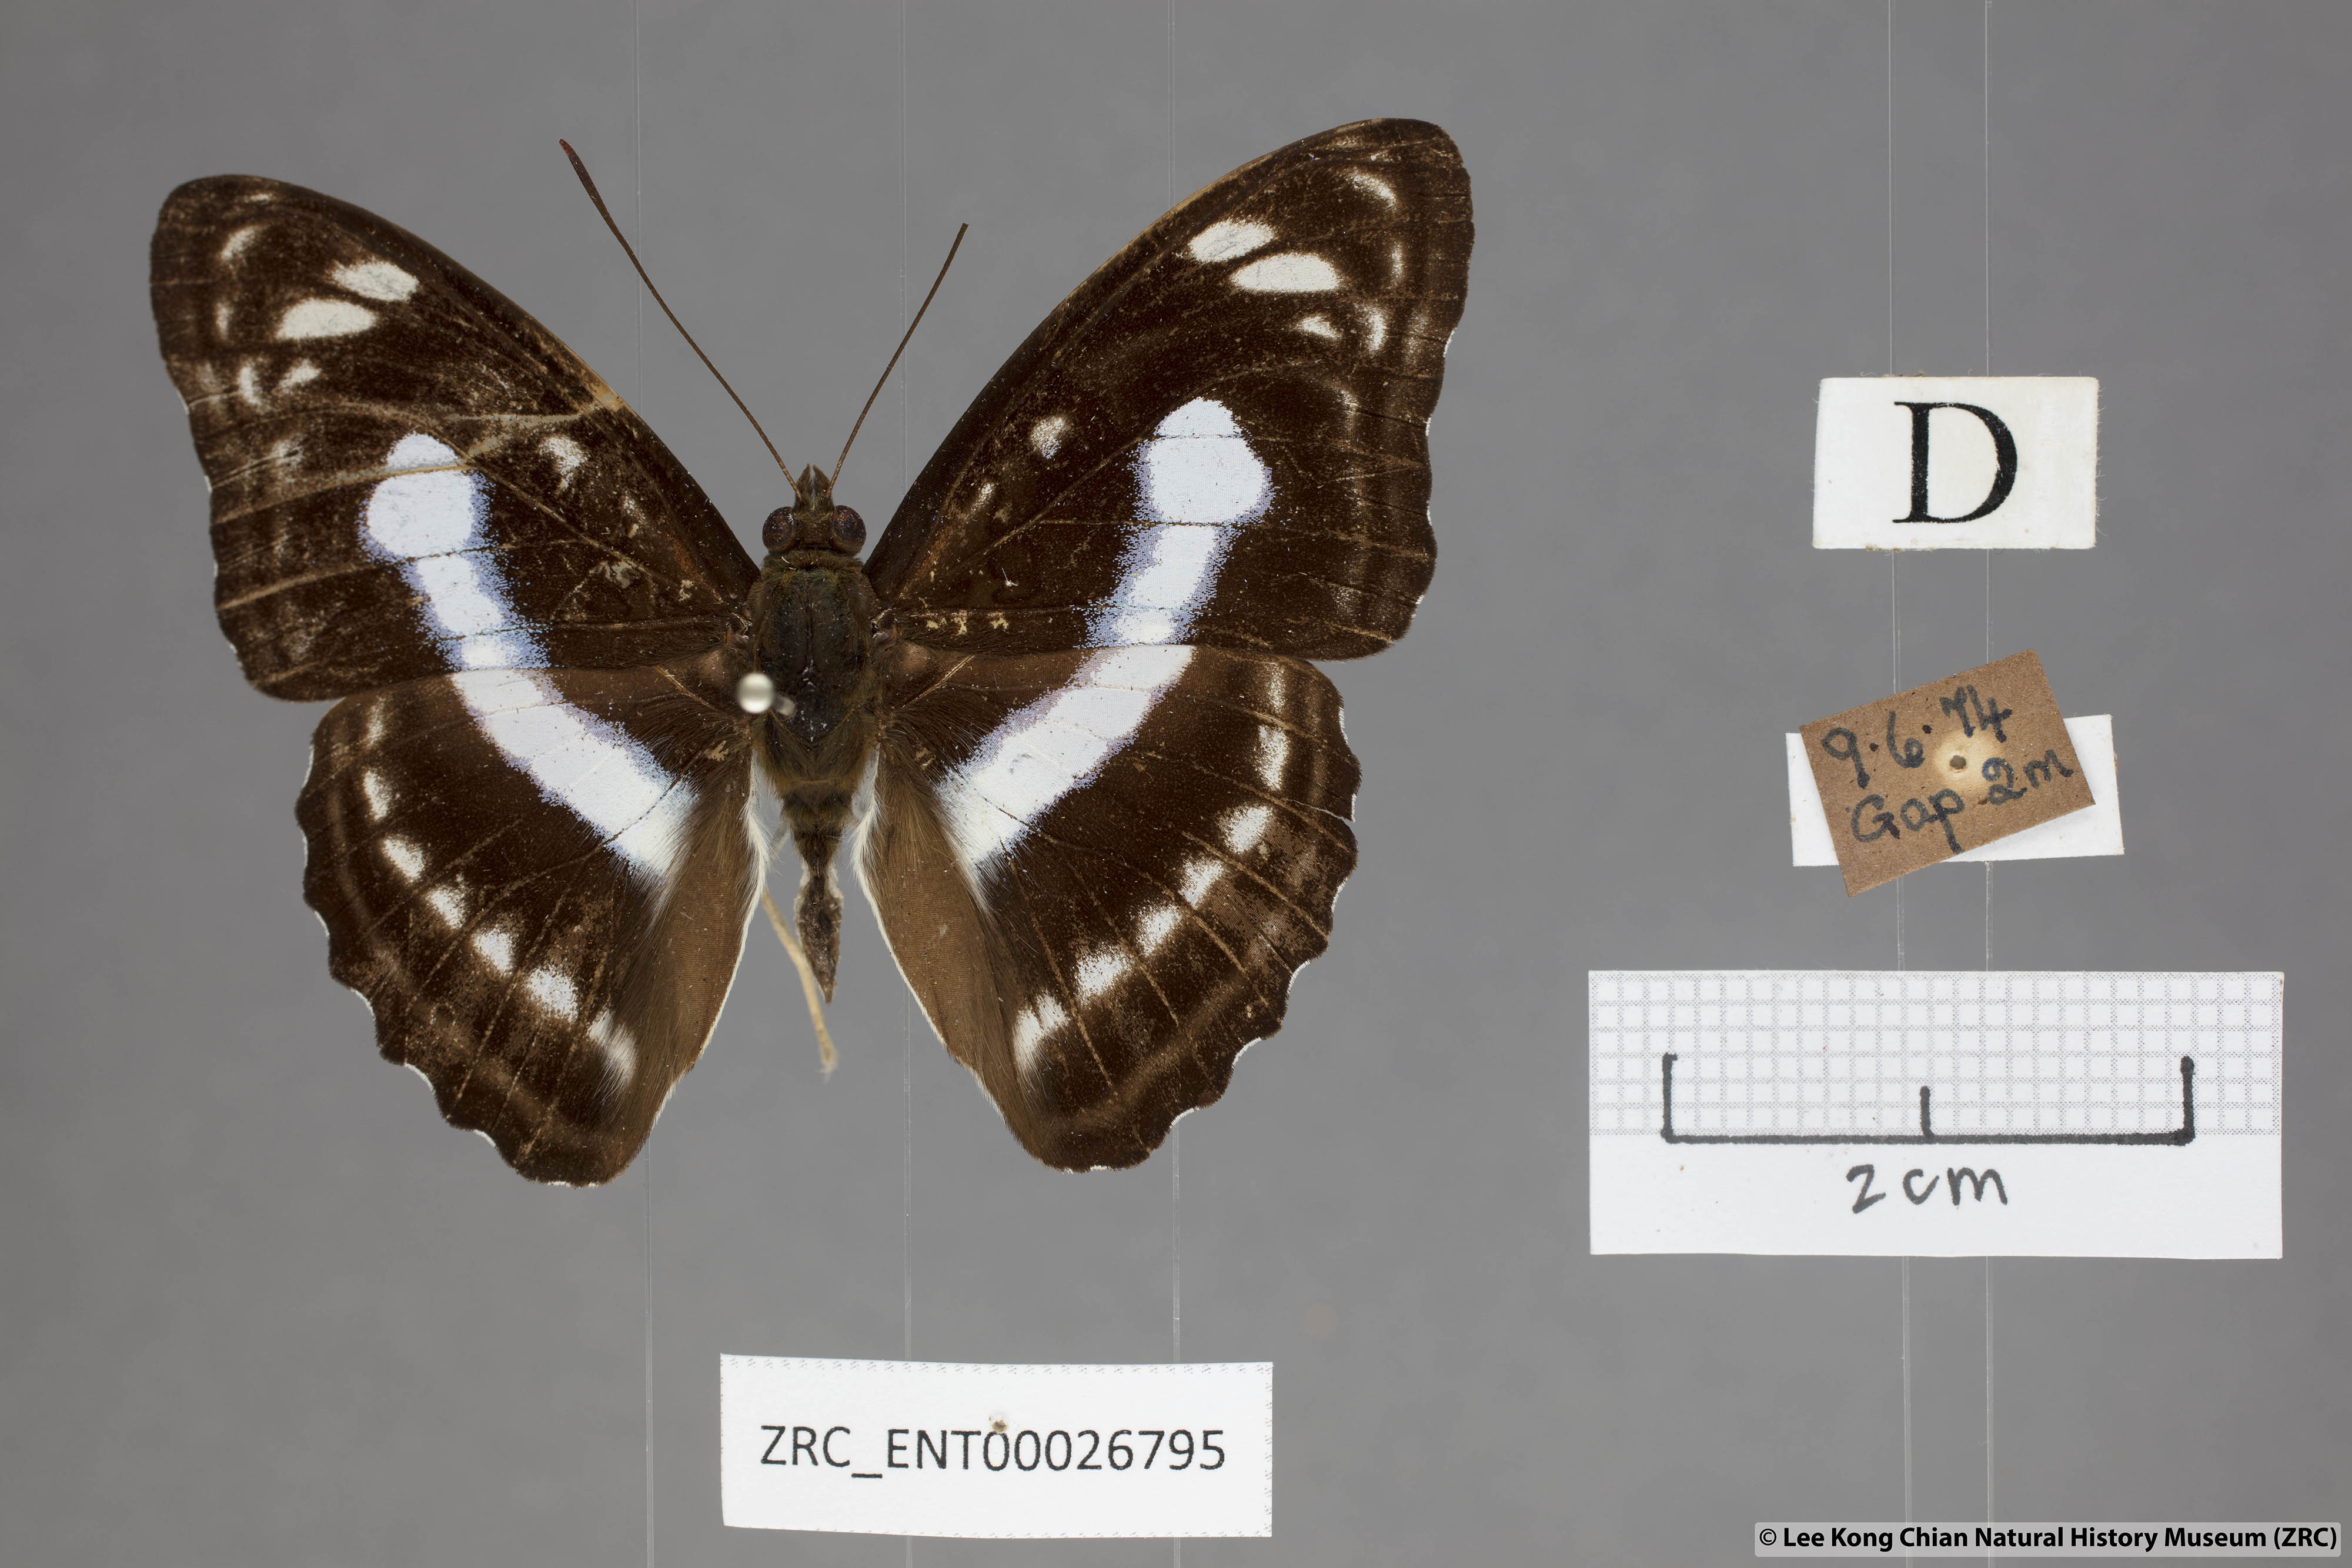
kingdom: Animalia
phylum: Arthropoda
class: Insecta
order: Lepidoptera
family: Nymphalidae
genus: Parathyma
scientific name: Parathyma selenophora
